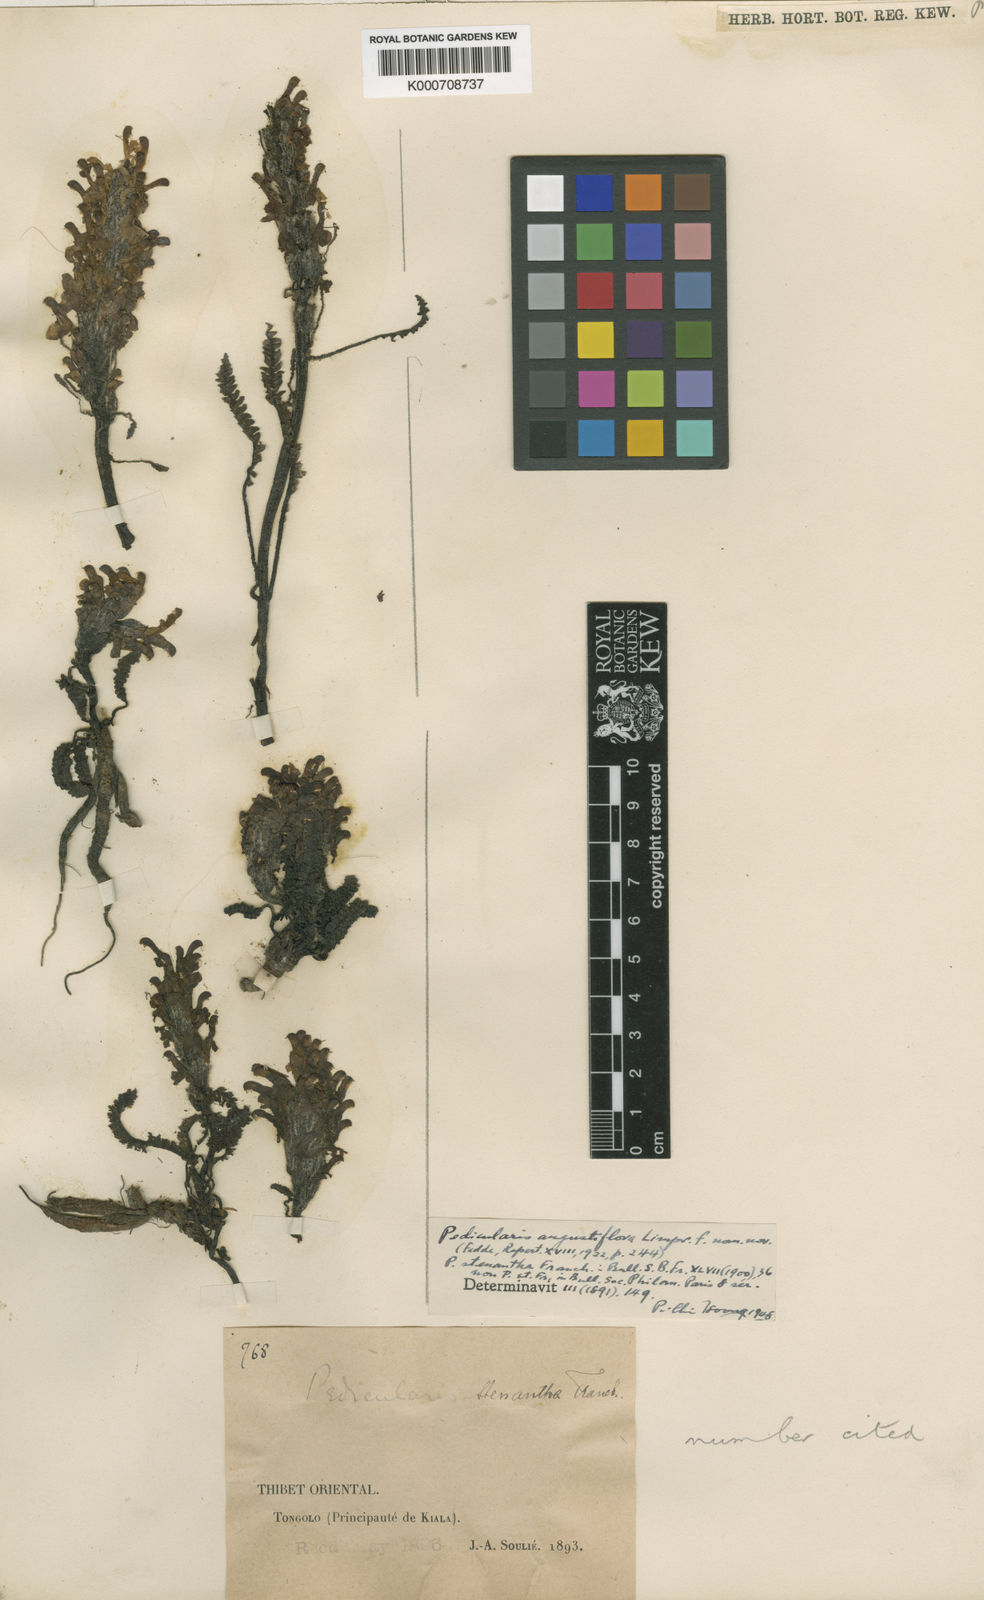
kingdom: Plantae
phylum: Tracheophyta
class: Magnoliopsida
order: Lamiales
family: Orobanchaceae
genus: Pedicularis
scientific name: Pedicularis oederi
